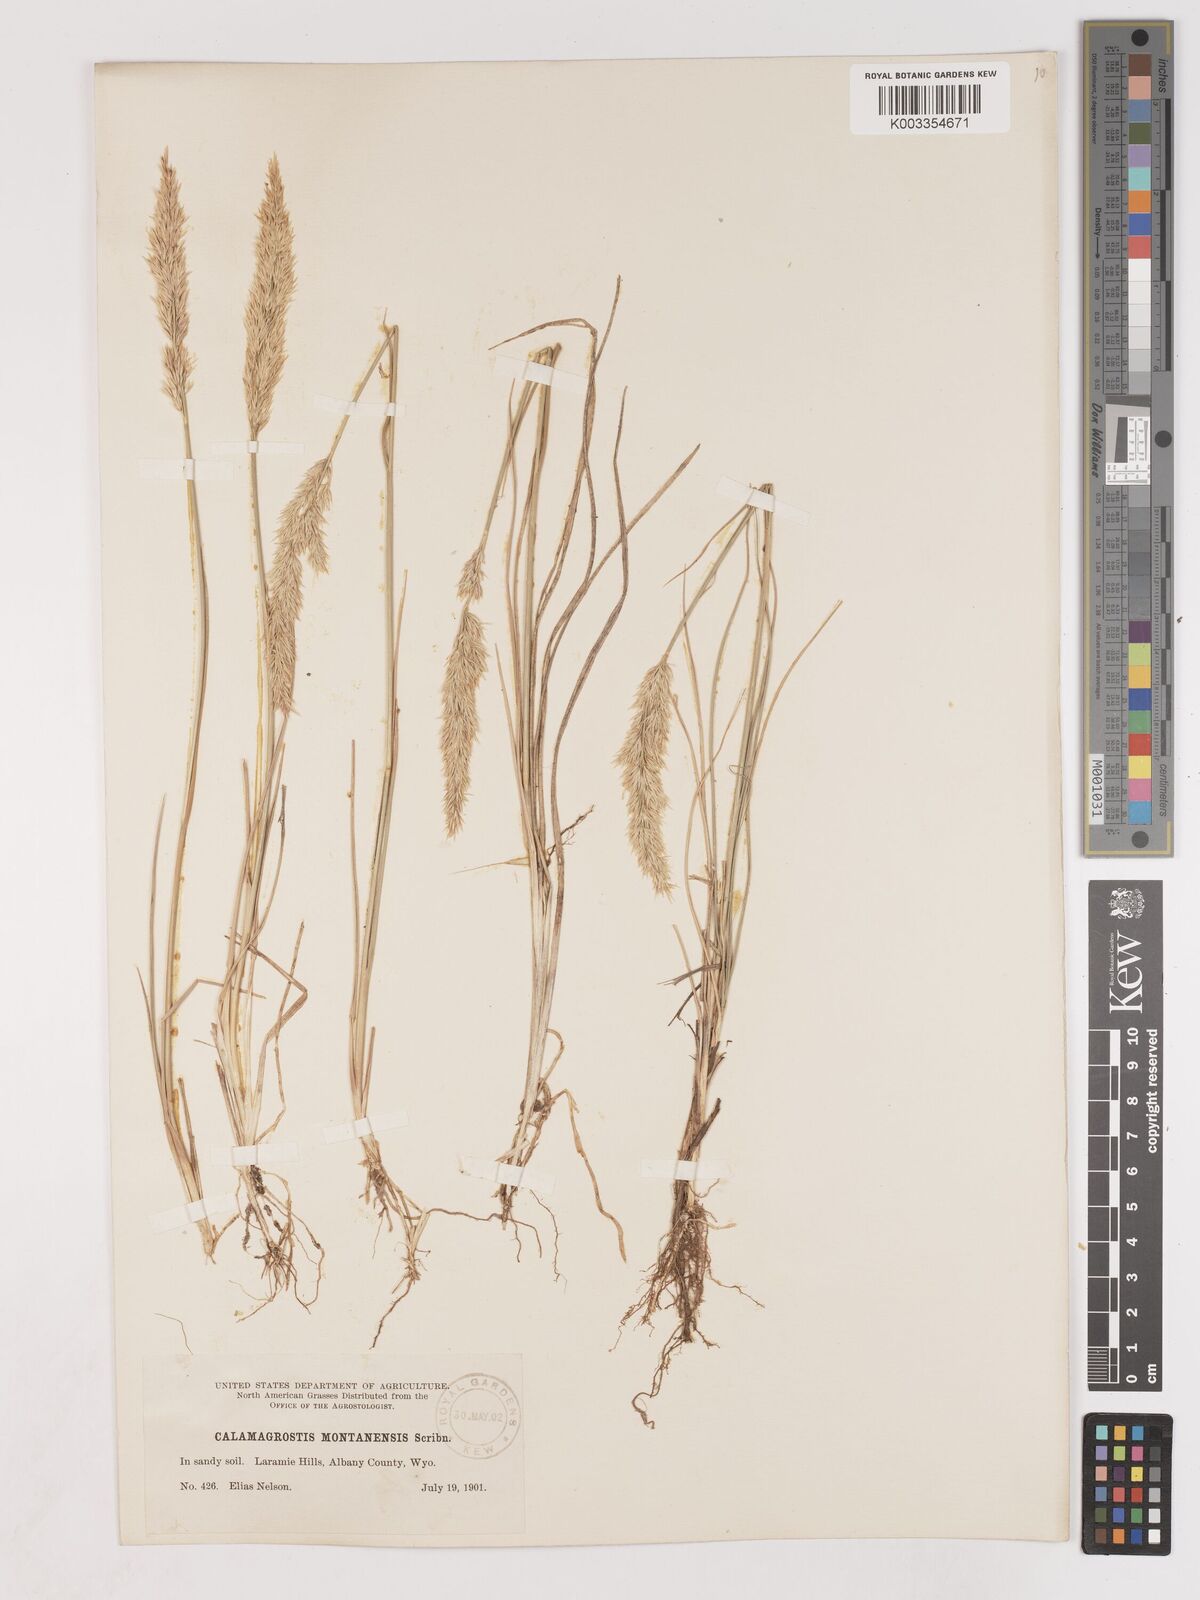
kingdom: Plantae
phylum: Tracheophyta
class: Liliopsida
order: Poales
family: Poaceae
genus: Calamagrostis
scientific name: Calamagrostis montanensis
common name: Plains reedgrass
